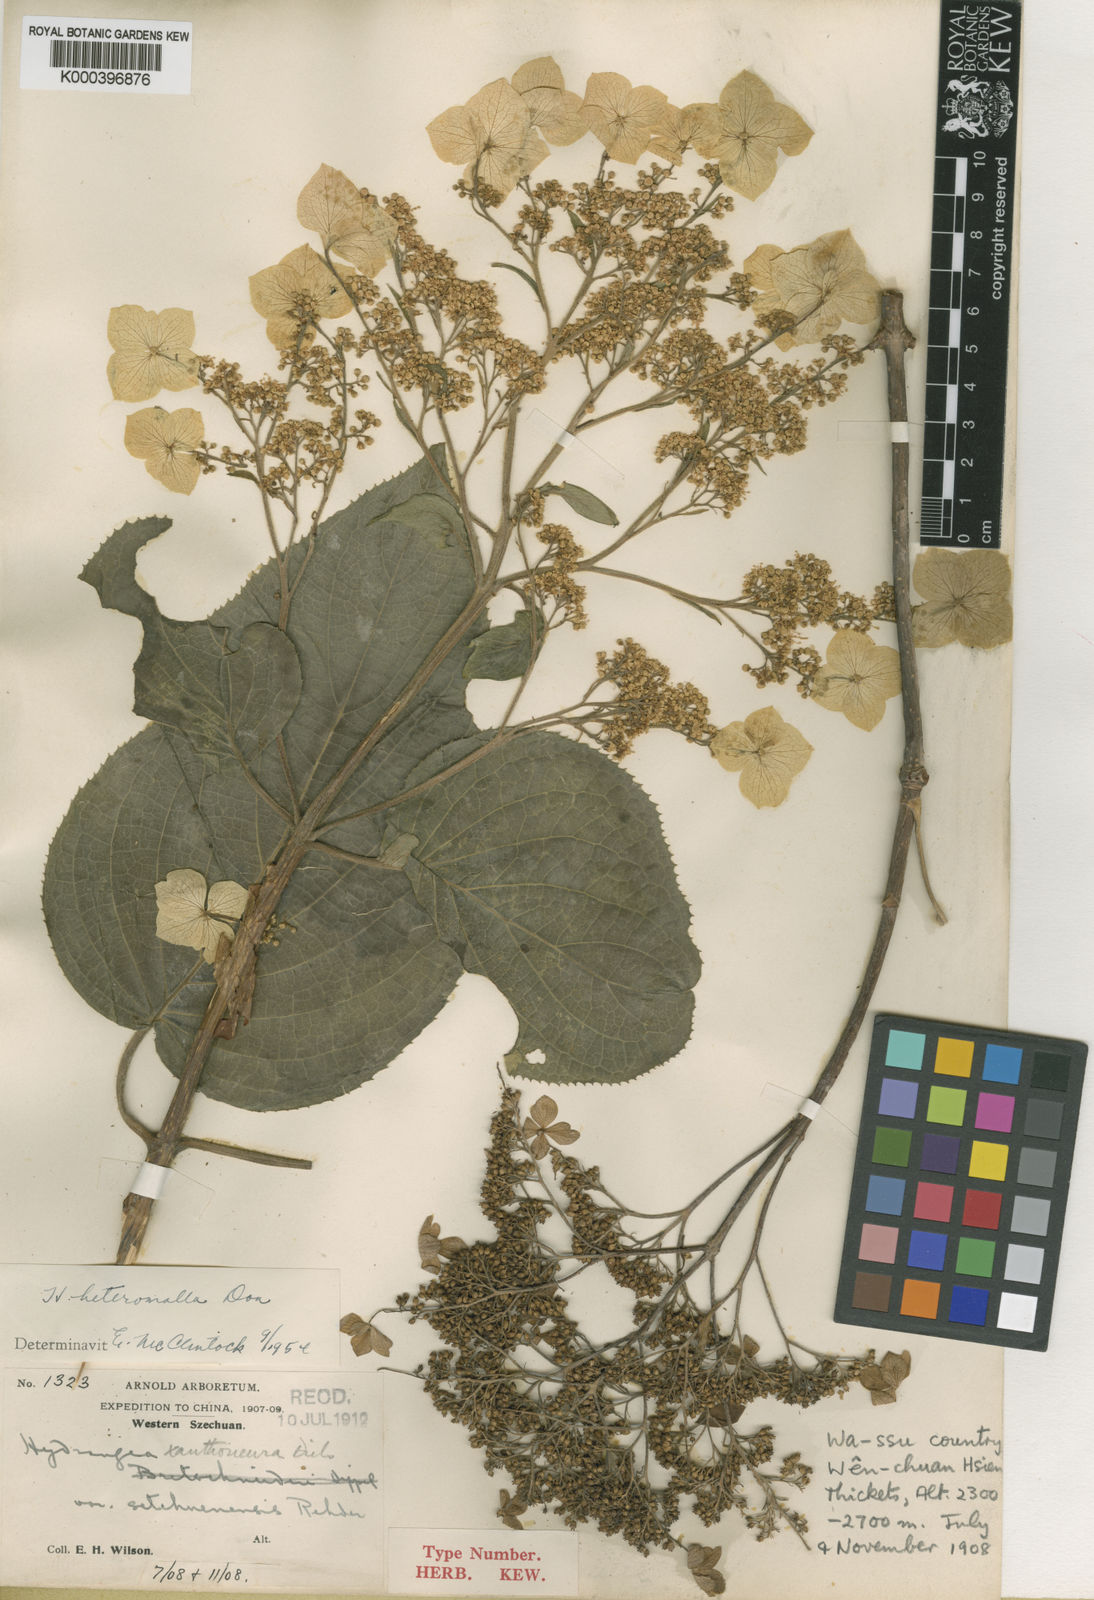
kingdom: Plantae
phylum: Tracheophyta
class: Magnoliopsida
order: Cornales
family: Hydrangeaceae
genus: Hydrangea
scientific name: Hydrangea heteromalla
